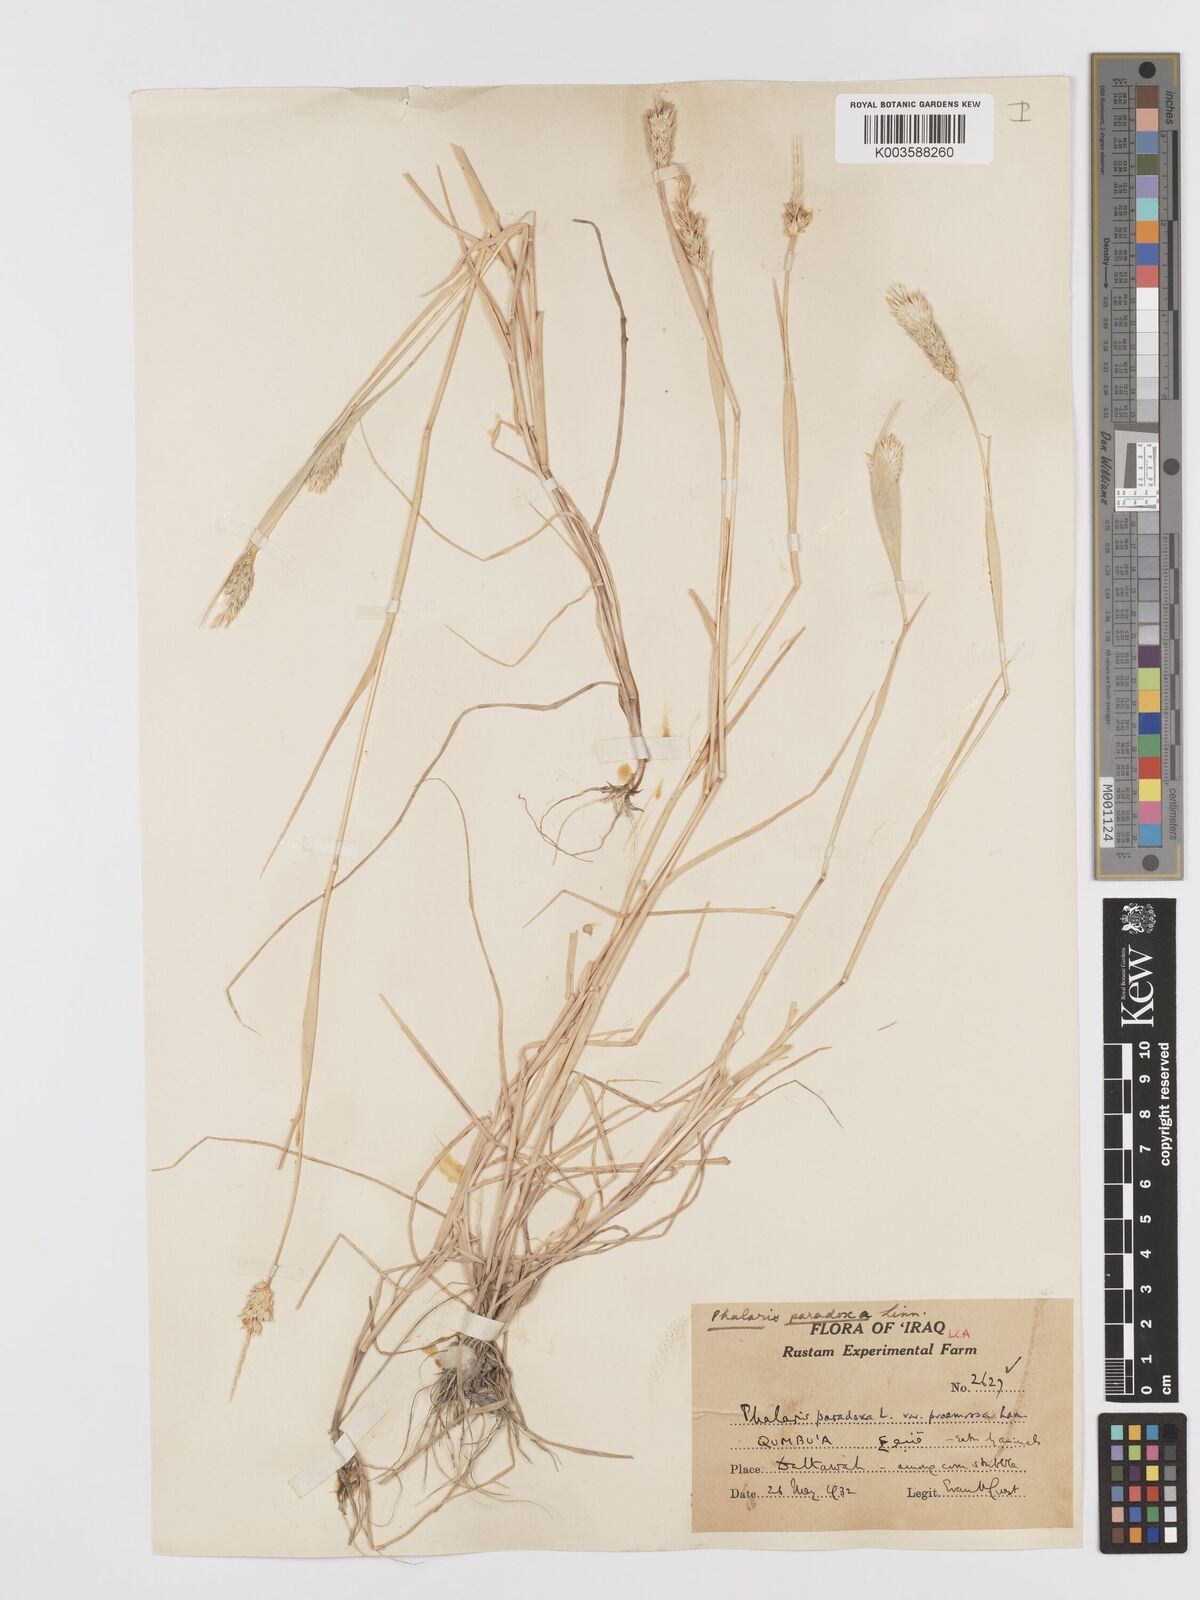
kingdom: Plantae
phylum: Tracheophyta
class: Liliopsida
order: Poales
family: Poaceae
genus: Phalaris
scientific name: Phalaris paradoxa
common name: Awned canary-grass
